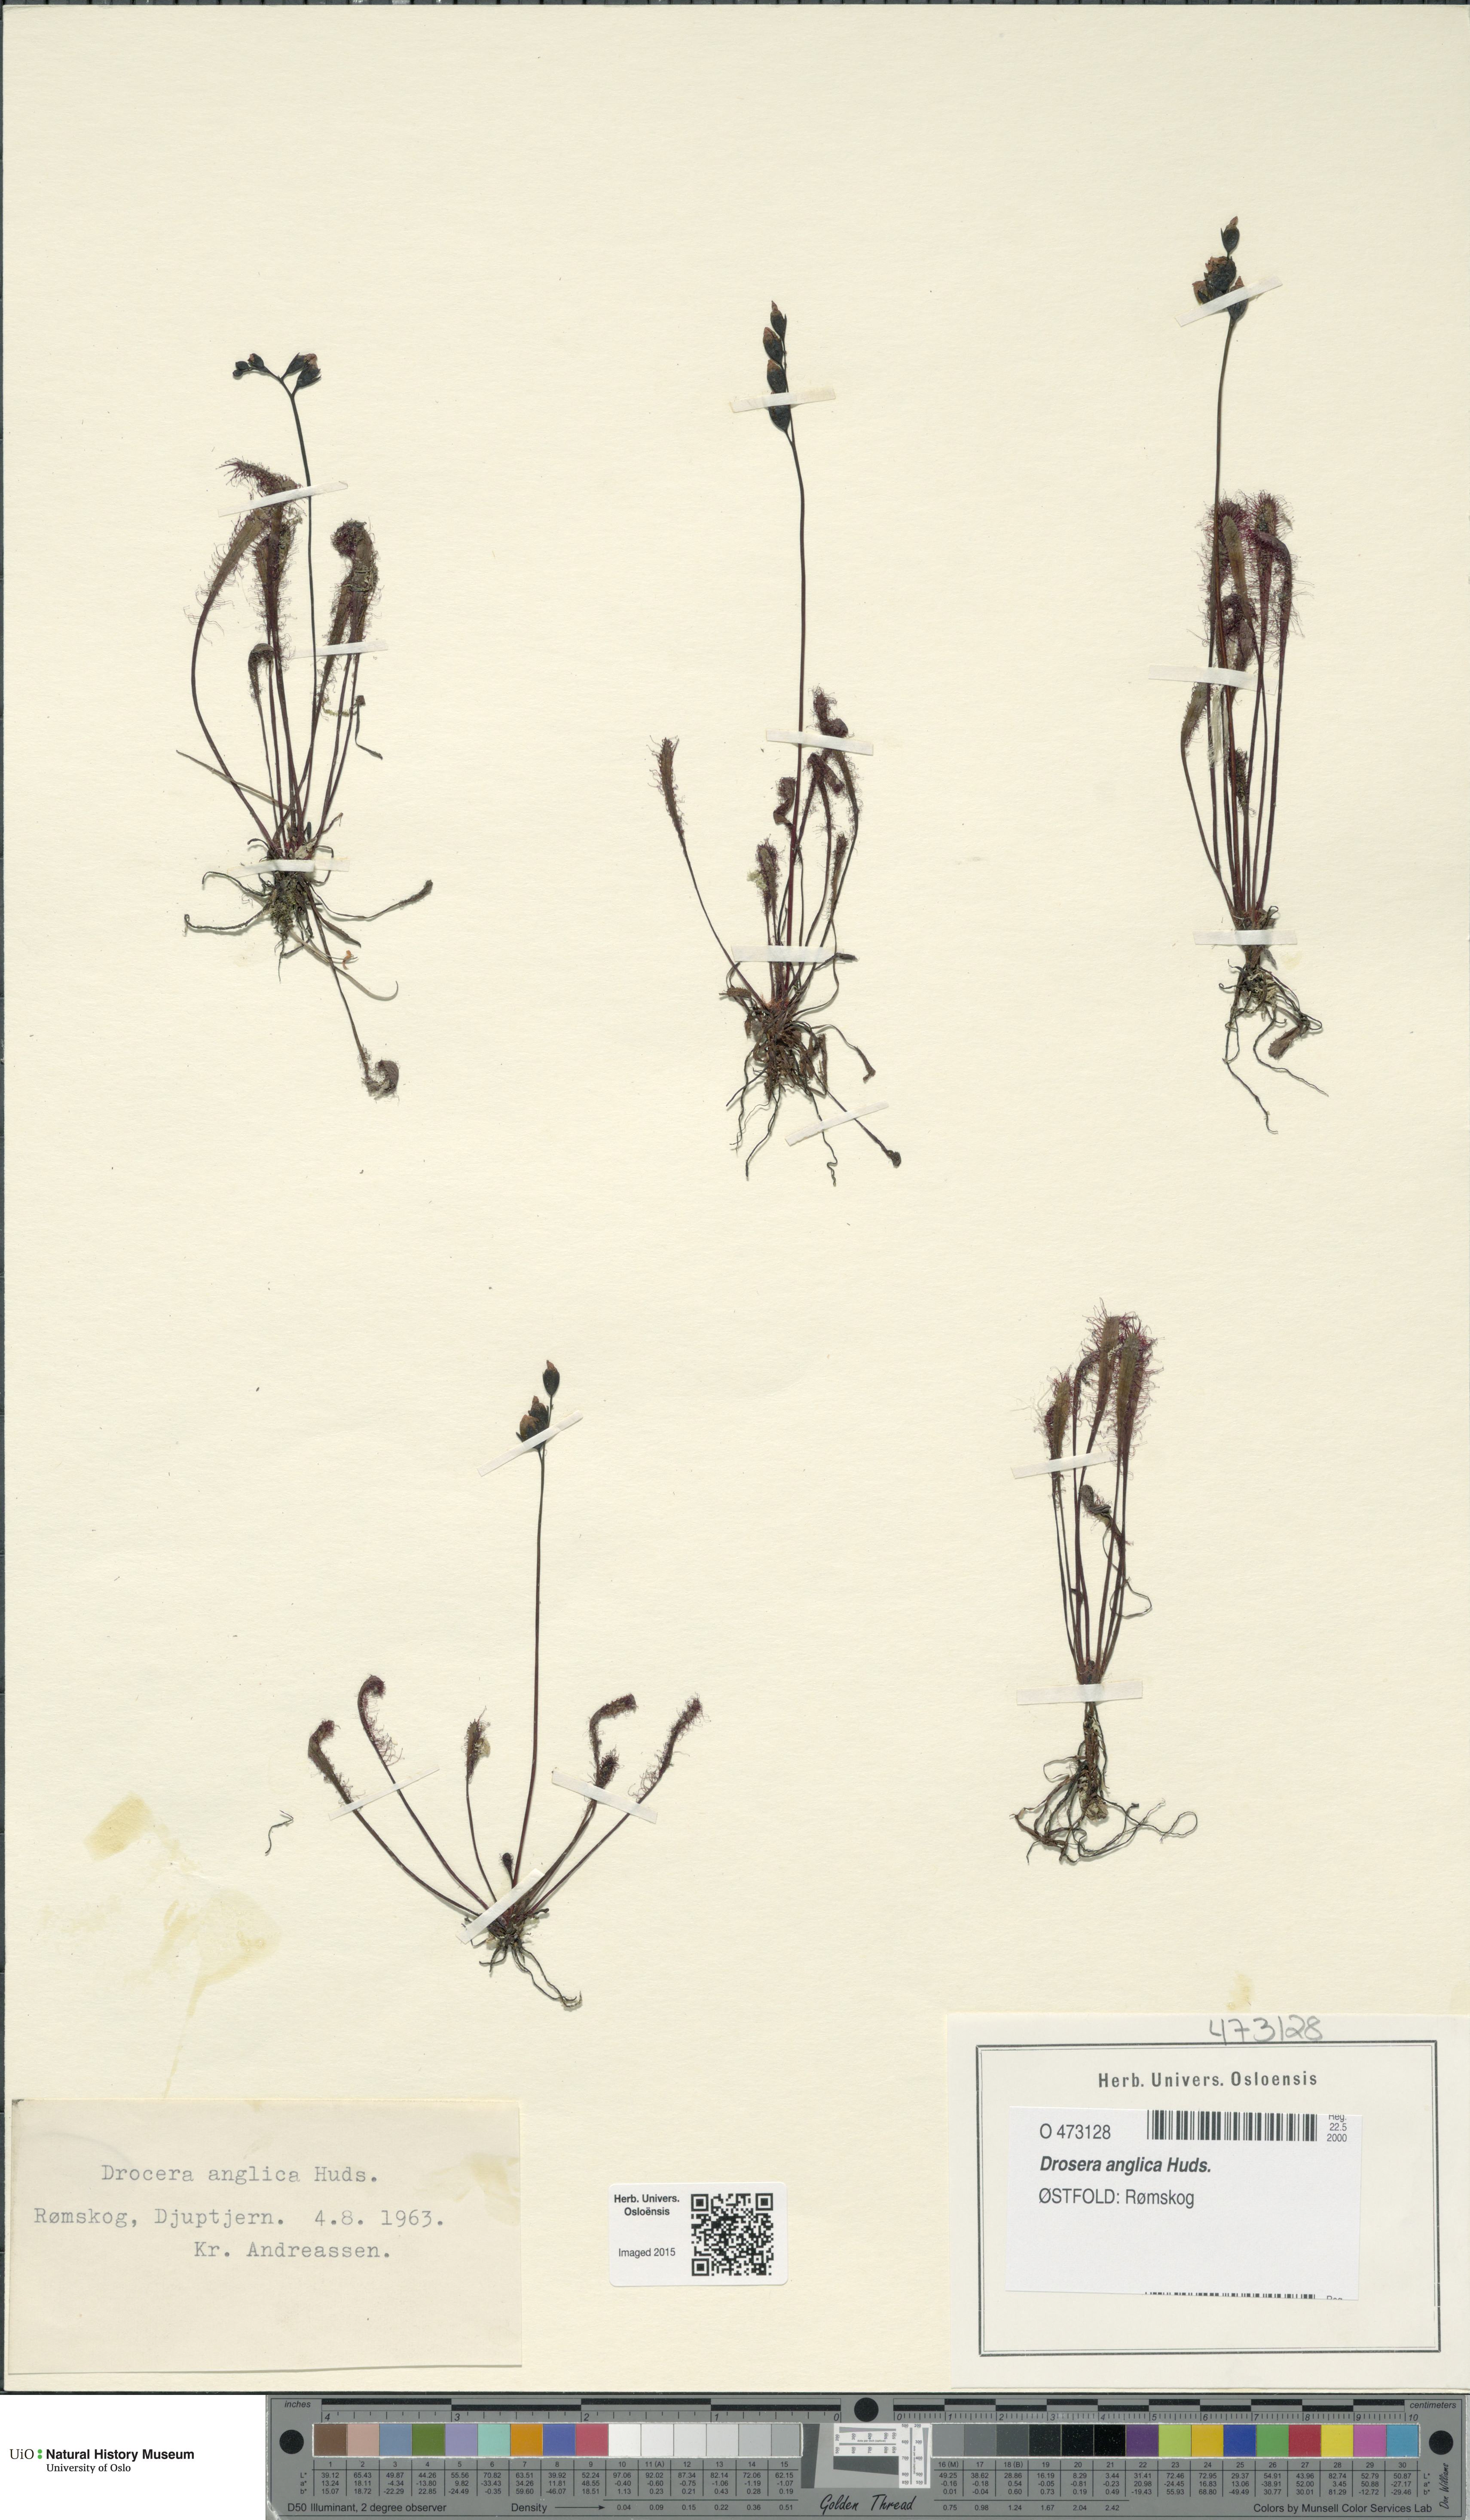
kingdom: Plantae
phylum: Tracheophyta
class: Magnoliopsida
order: Caryophyllales
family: Droseraceae
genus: Drosera
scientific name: Drosera anglica
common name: Great sundew
